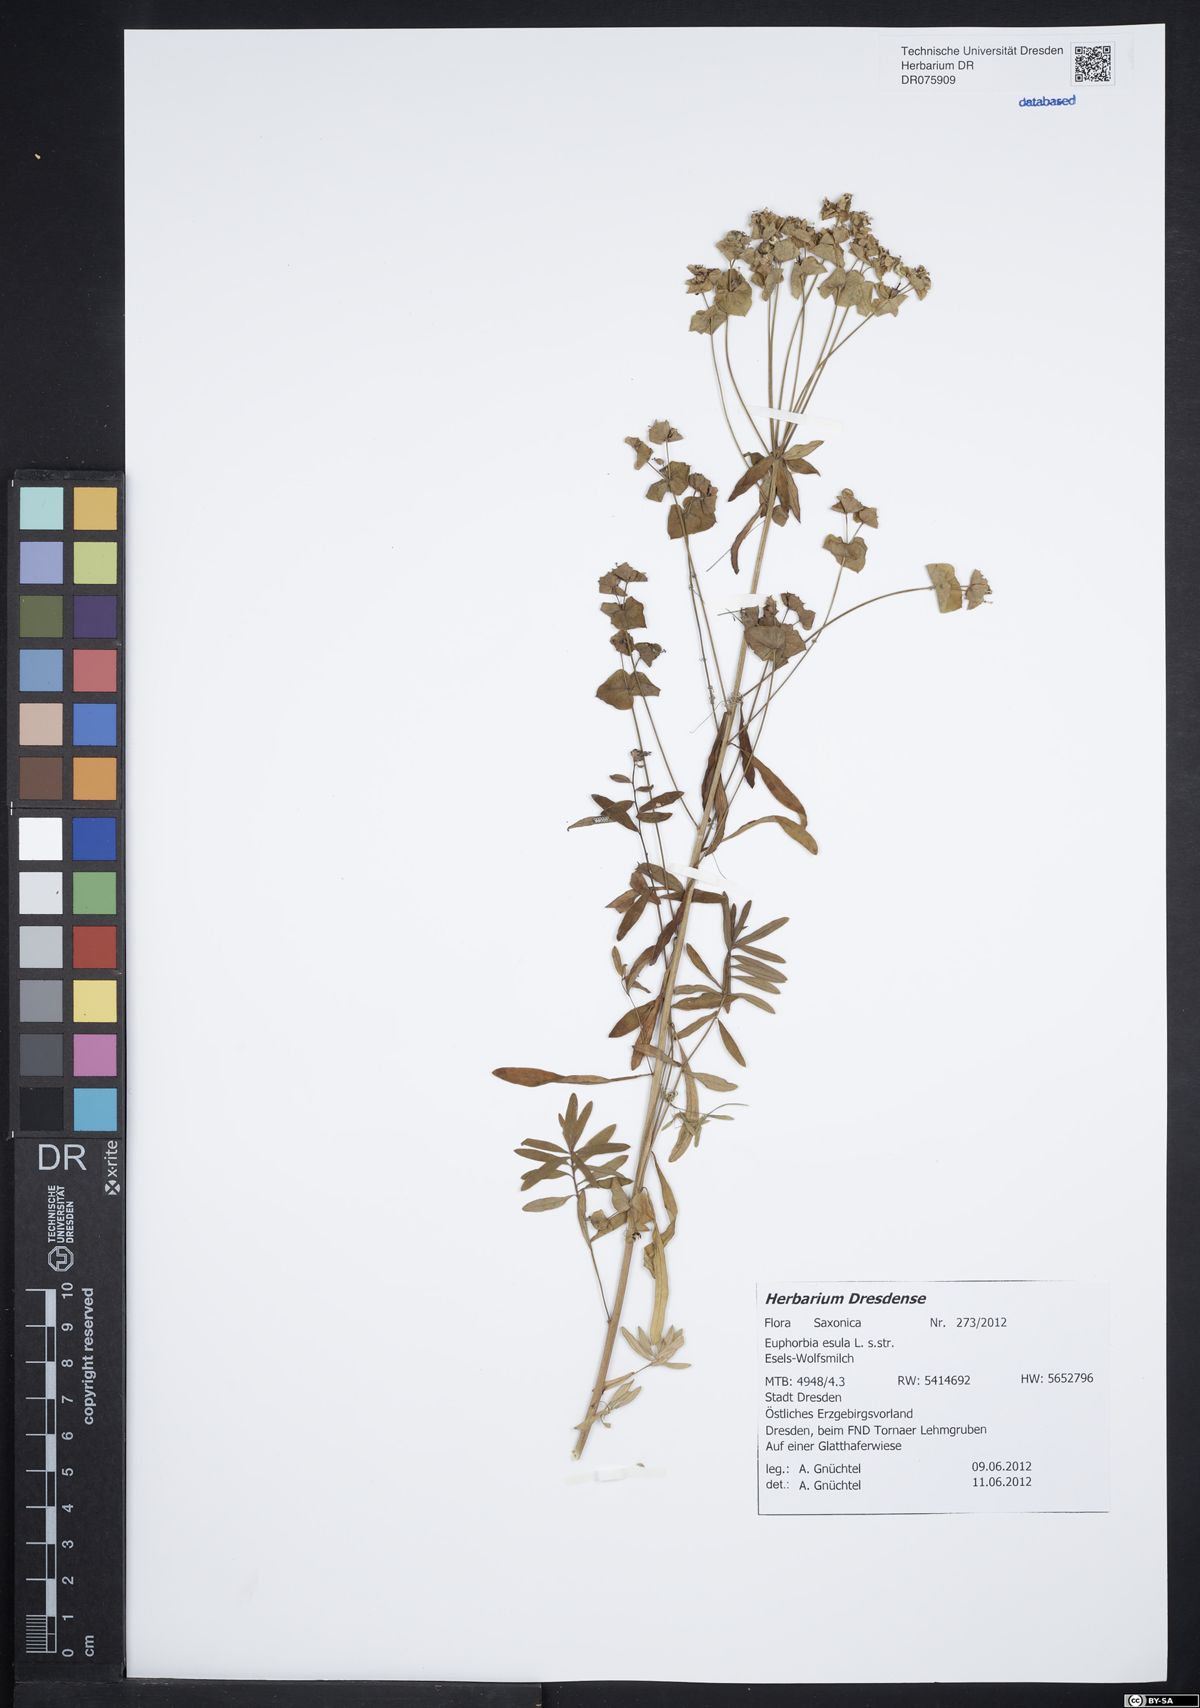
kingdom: Plantae
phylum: Tracheophyta
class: Magnoliopsida
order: Malpighiales
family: Euphorbiaceae
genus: Euphorbia
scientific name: Euphorbia esula
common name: Leafy spurge
